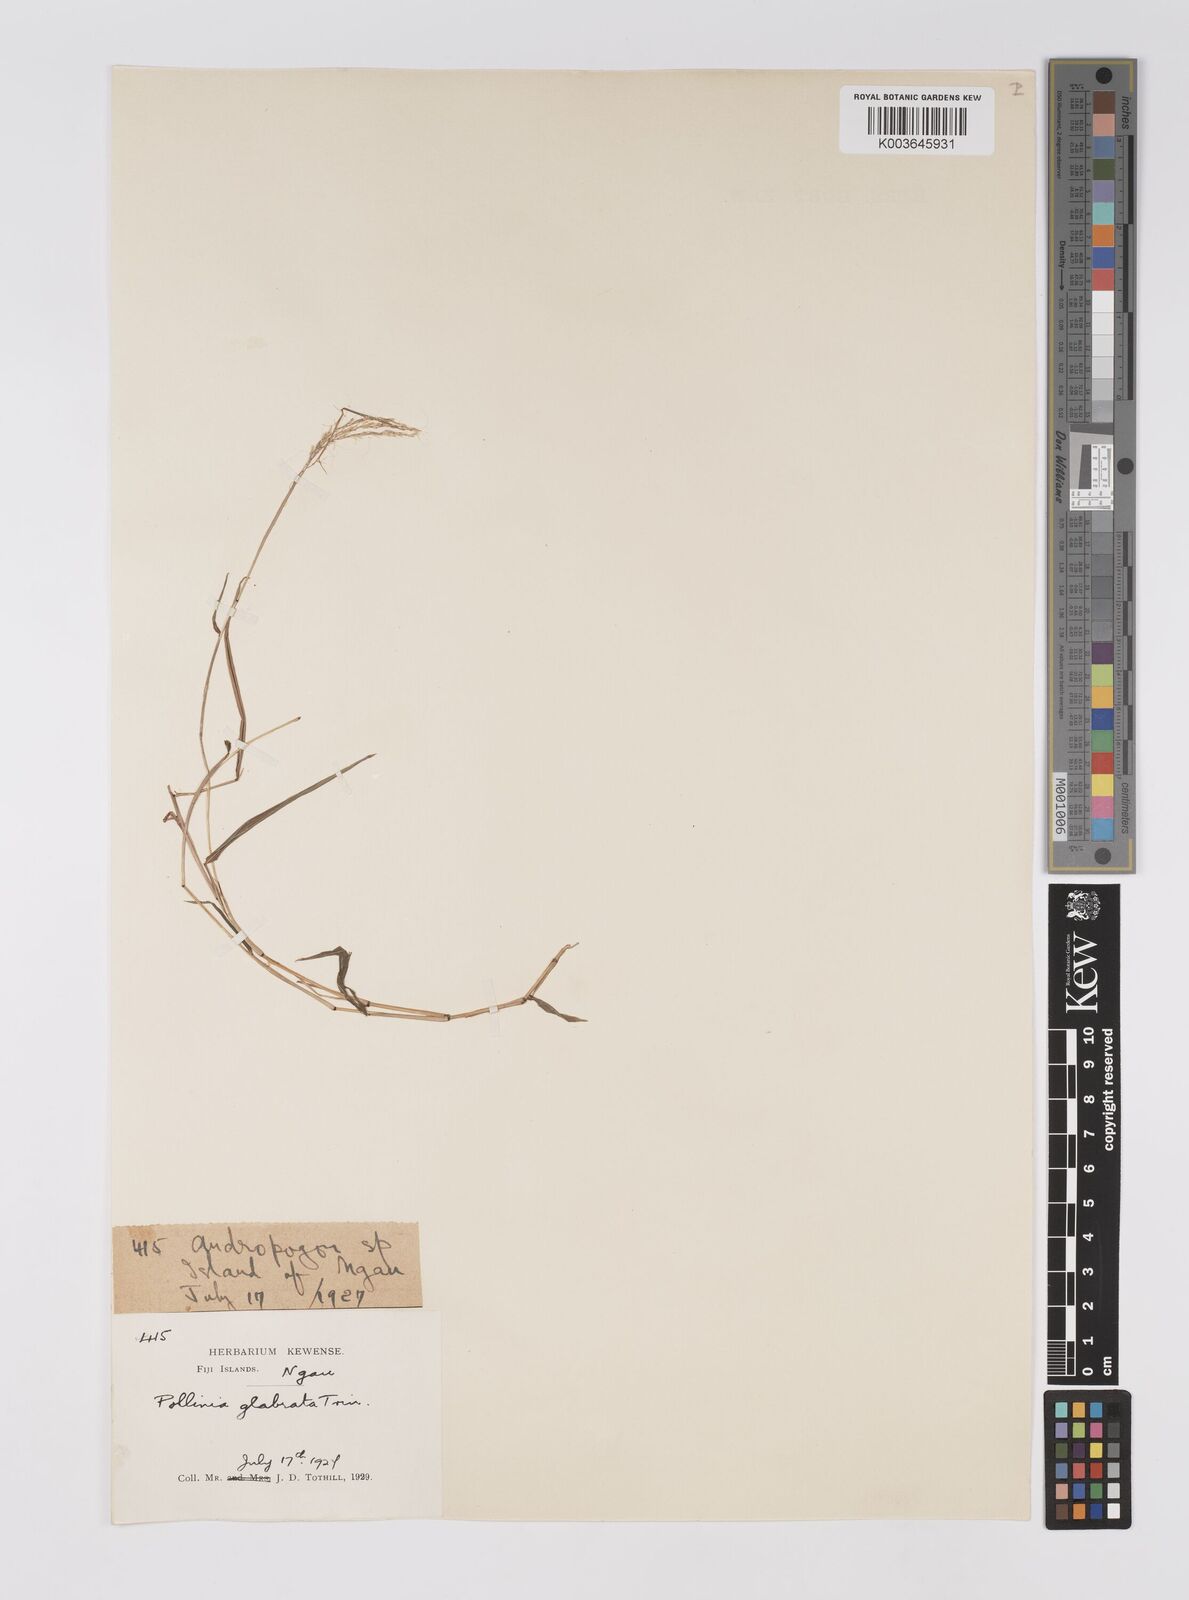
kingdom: Plantae
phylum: Tracheophyta
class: Liliopsida
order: Poales
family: Poaceae
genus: Microstegium
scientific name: Microstegium glabratum
